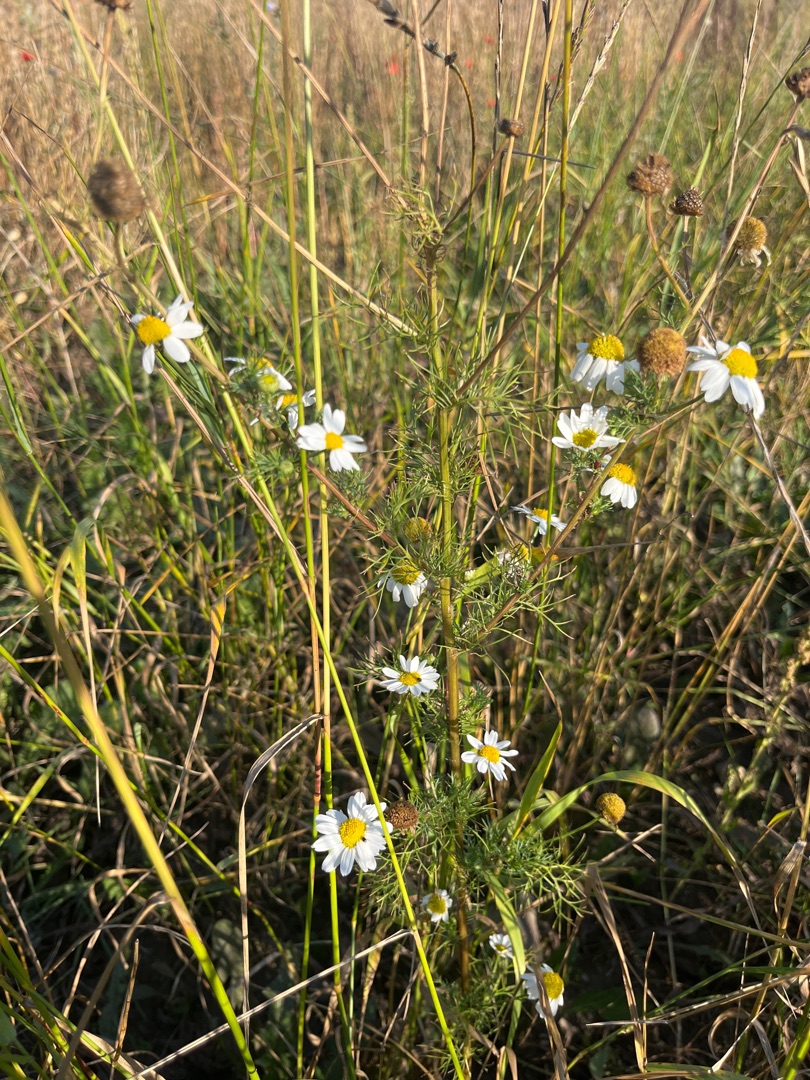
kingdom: Plantae
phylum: Tracheophyta
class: Magnoliopsida
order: Asterales
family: Asteraceae
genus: Tripleurospermum
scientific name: Tripleurospermum inodorum
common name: Lugtløs kamille
